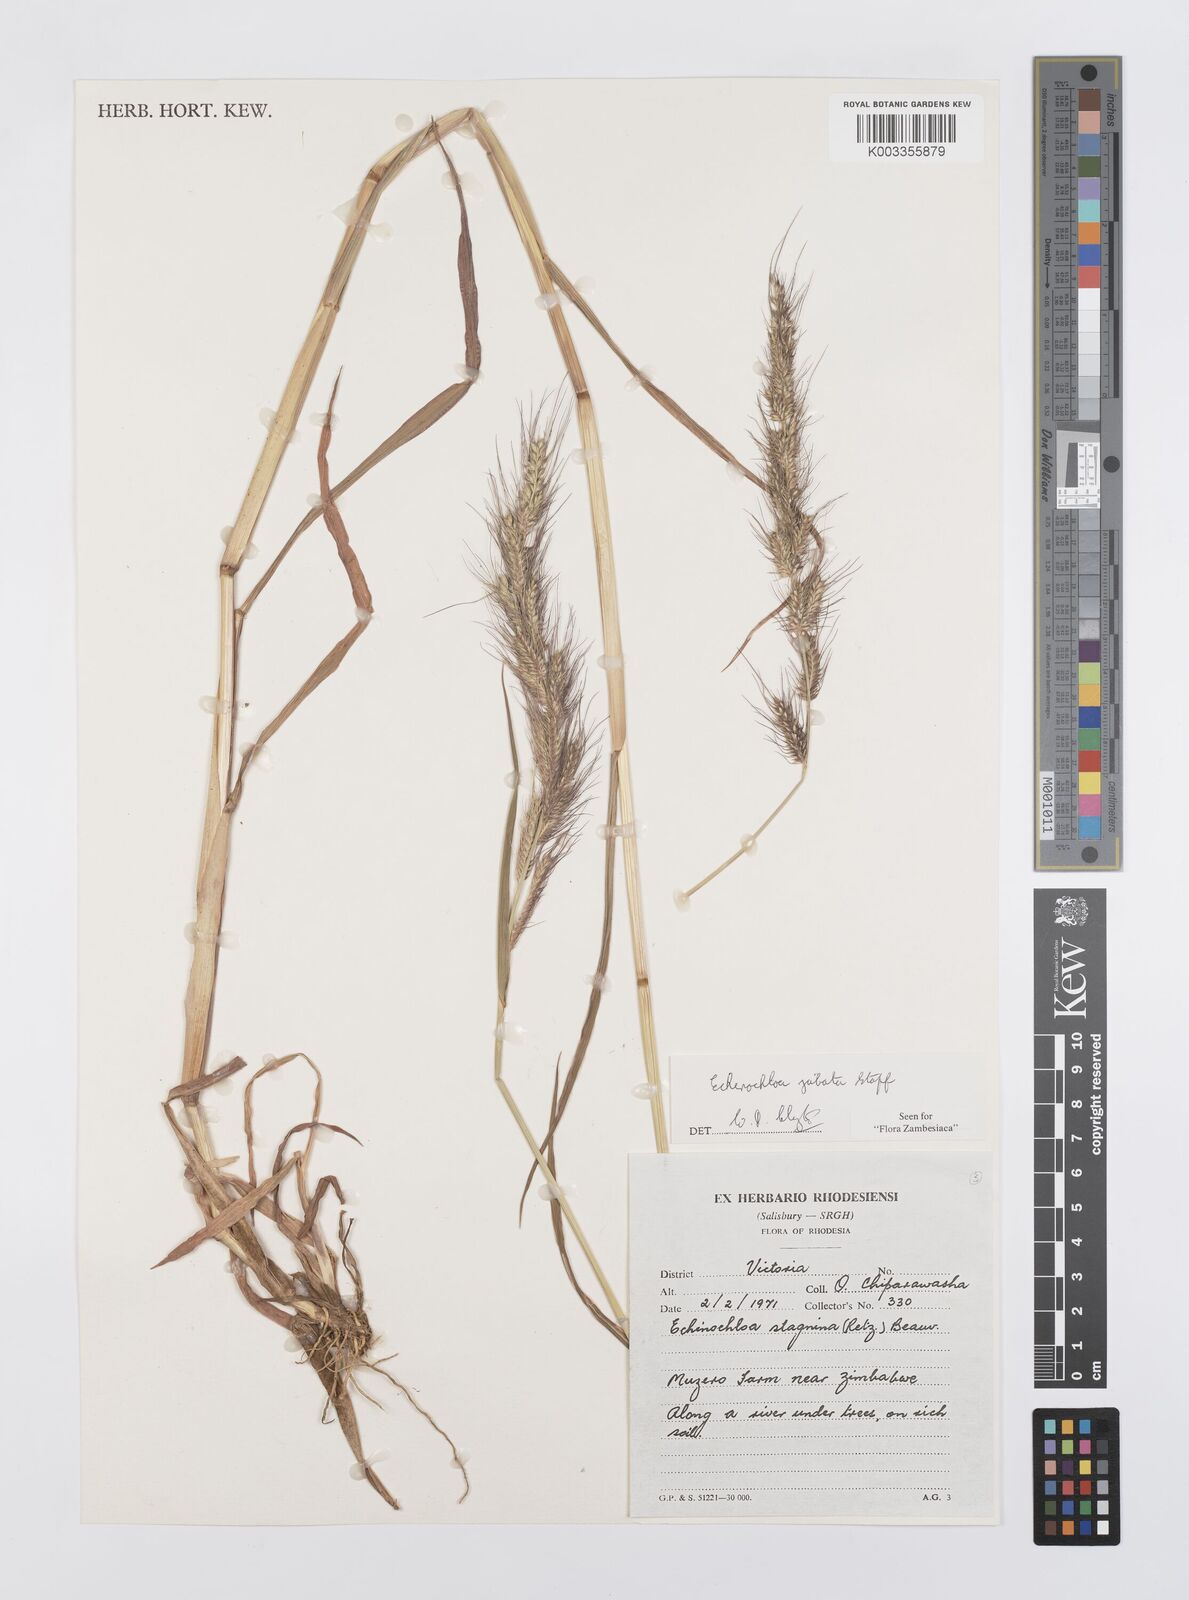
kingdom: Plantae
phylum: Tracheophyta
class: Liliopsida
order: Poales
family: Poaceae
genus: Echinochloa
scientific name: Echinochloa jubata
